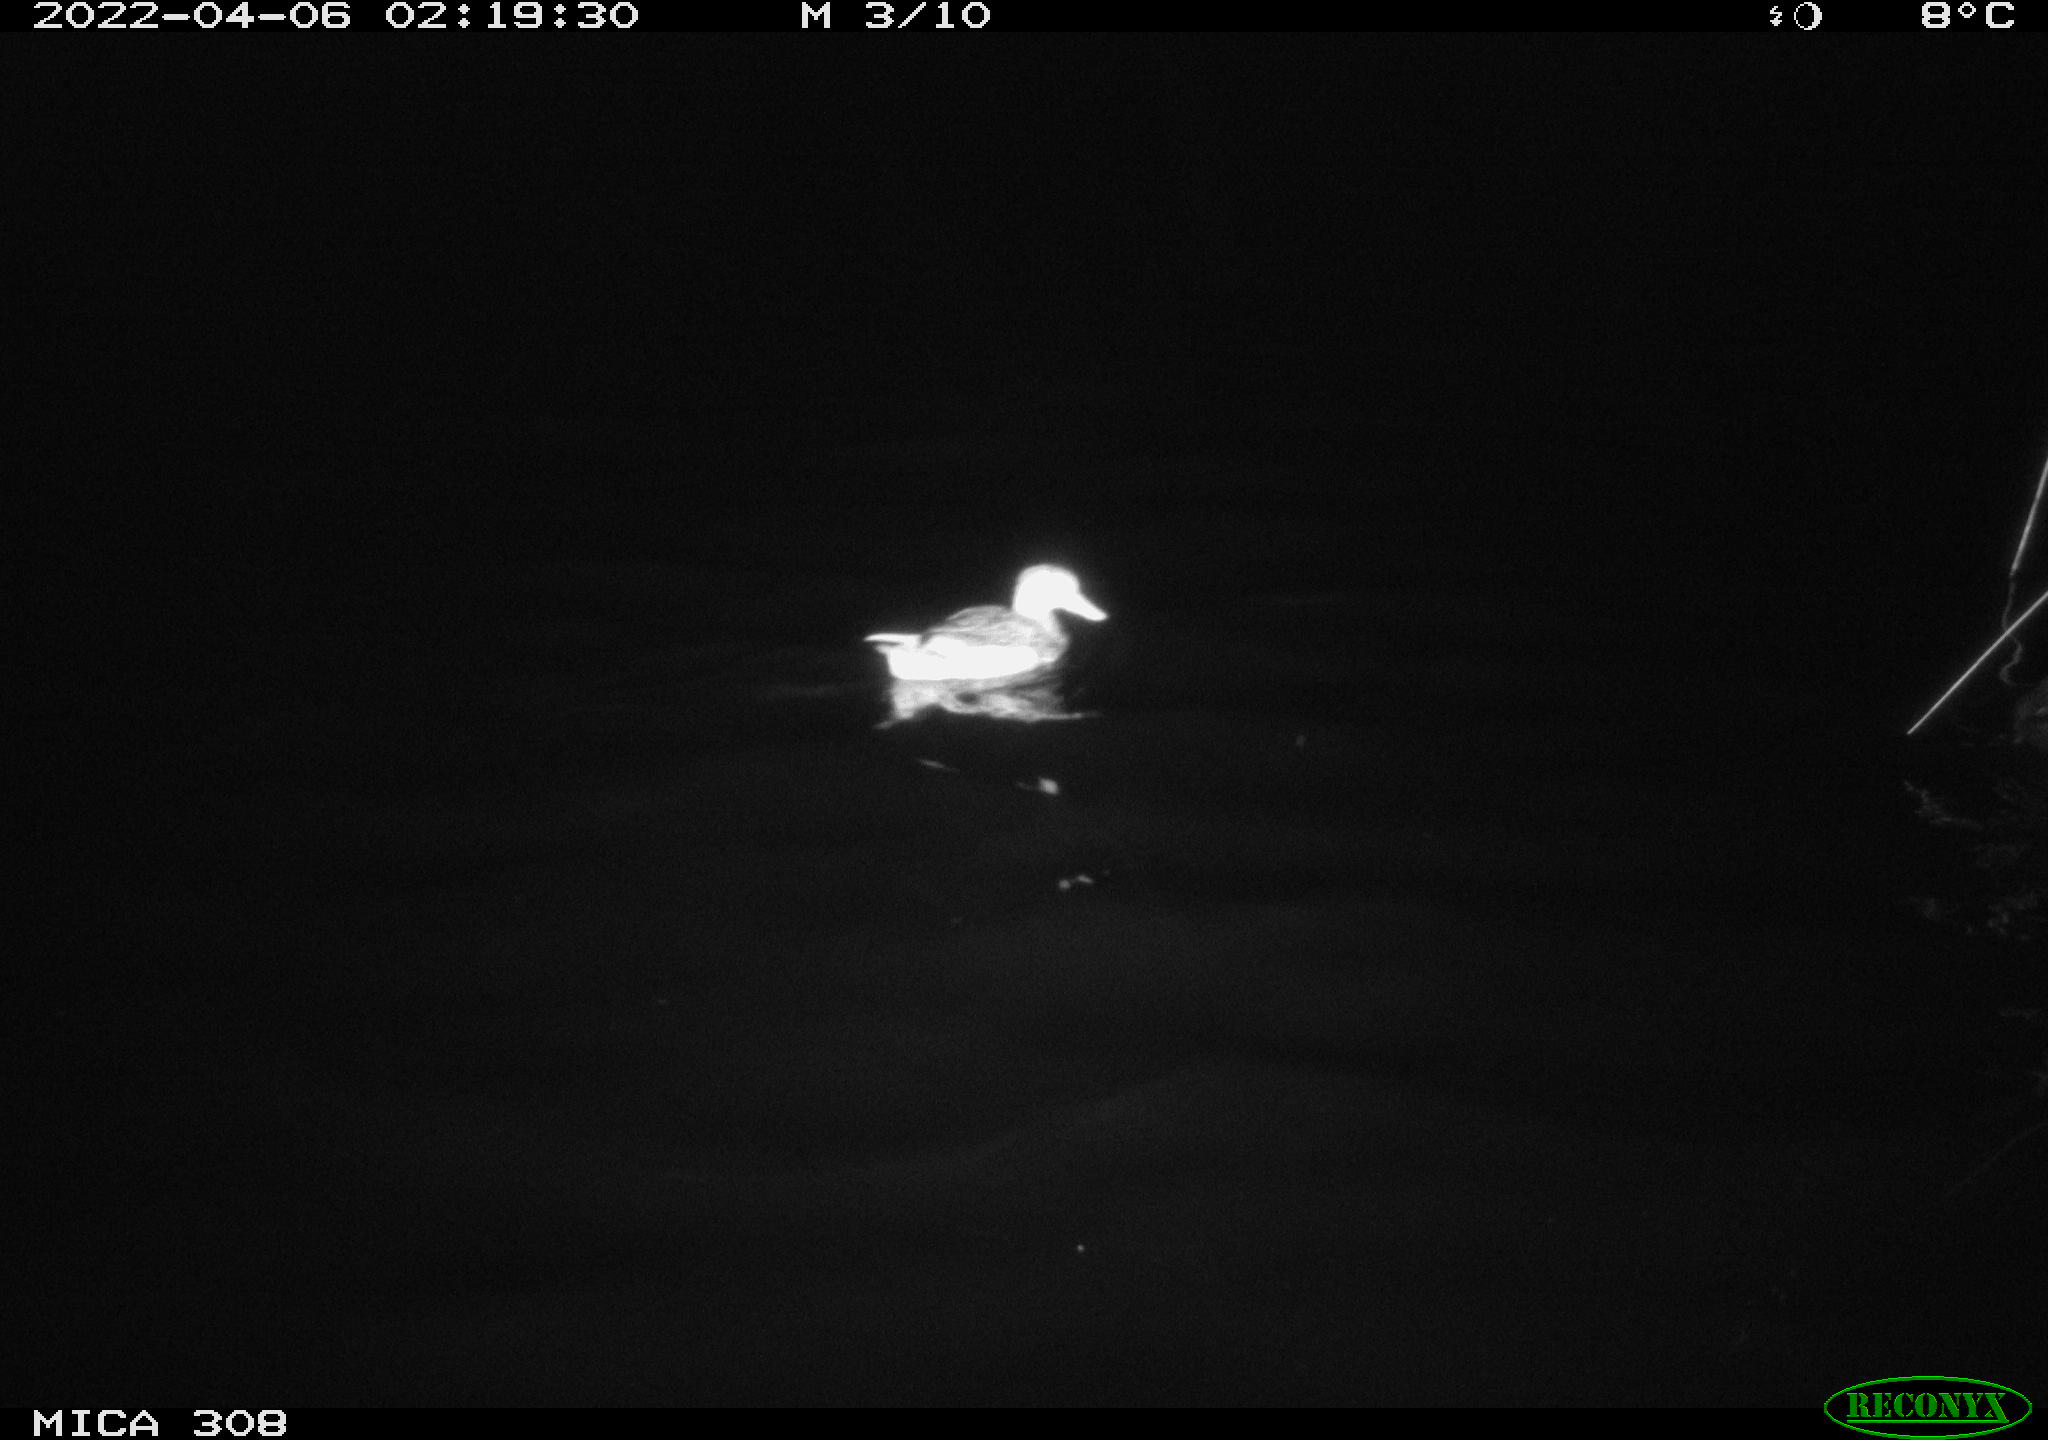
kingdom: Animalia
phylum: Chordata
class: Aves
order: Anseriformes
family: Anatidae
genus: Mareca
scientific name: Mareca strepera
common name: Gadwall
